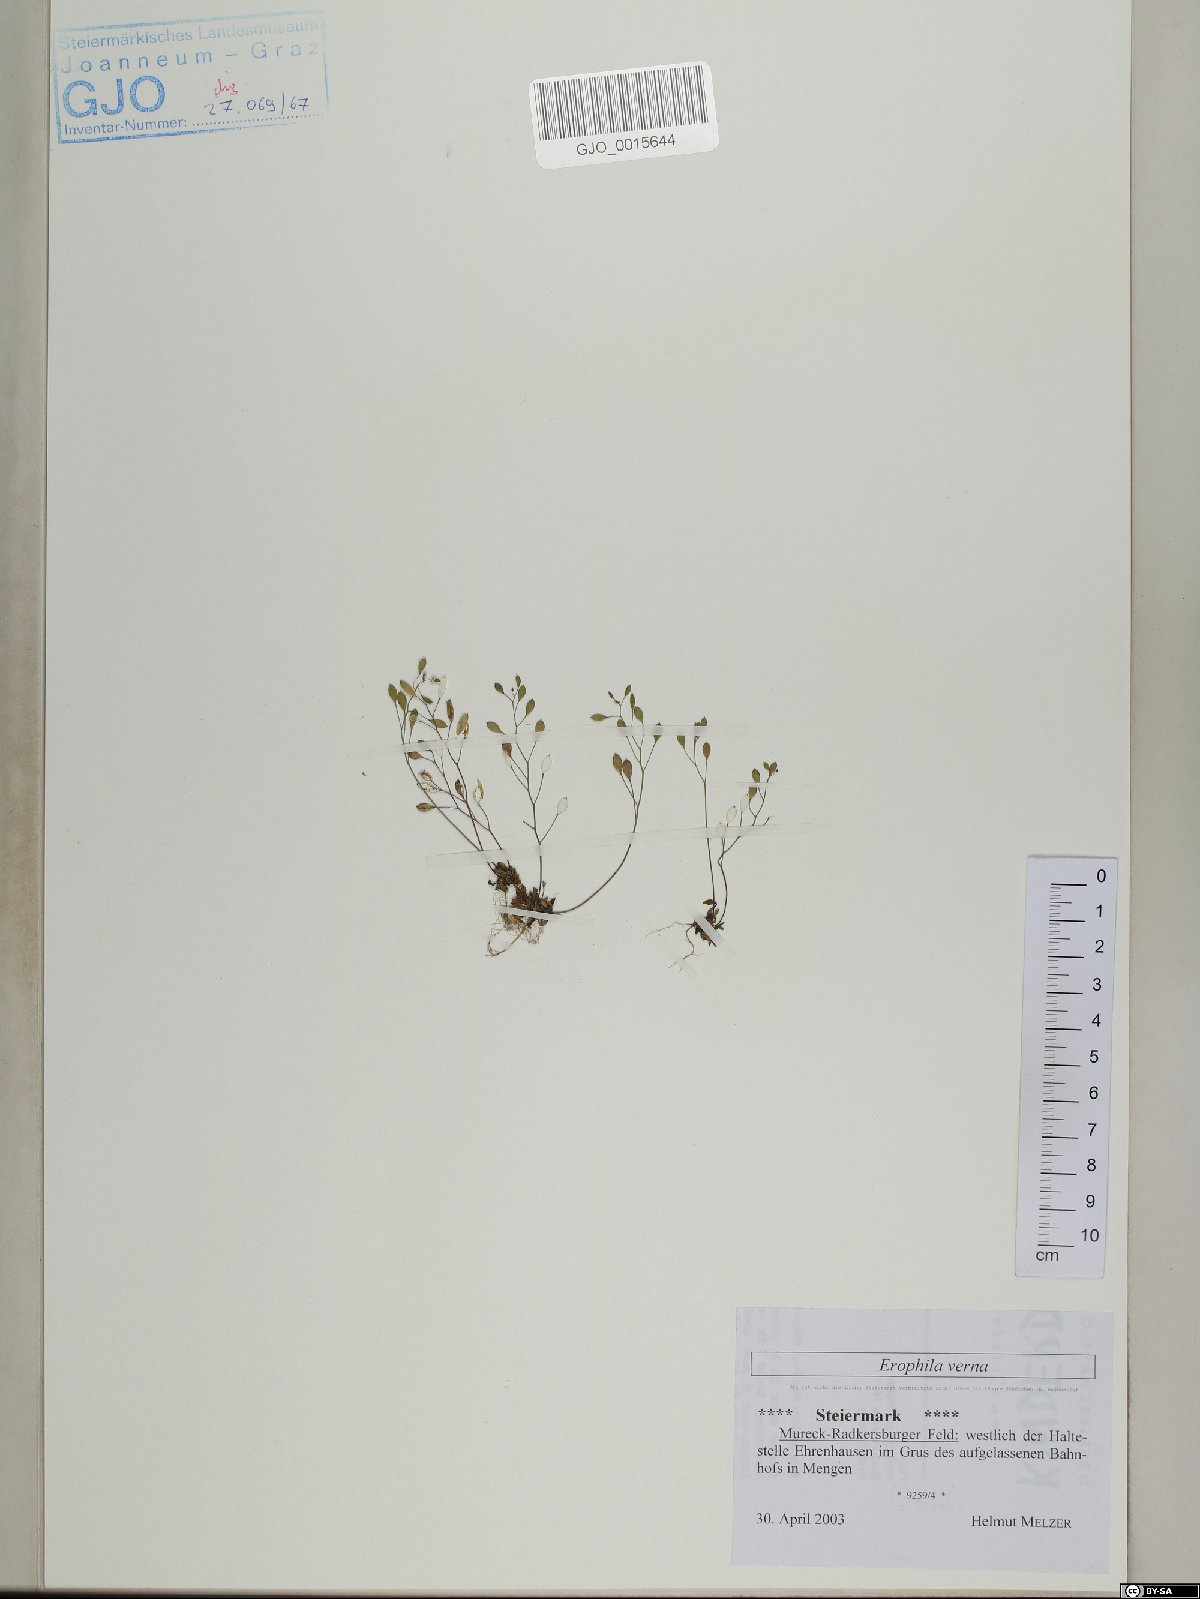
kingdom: Plantae
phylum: Tracheophyta
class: Magnoliopsida
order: Brassicales
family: Brassicaceae
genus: Draba
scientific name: Draba verna
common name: Spring draba
